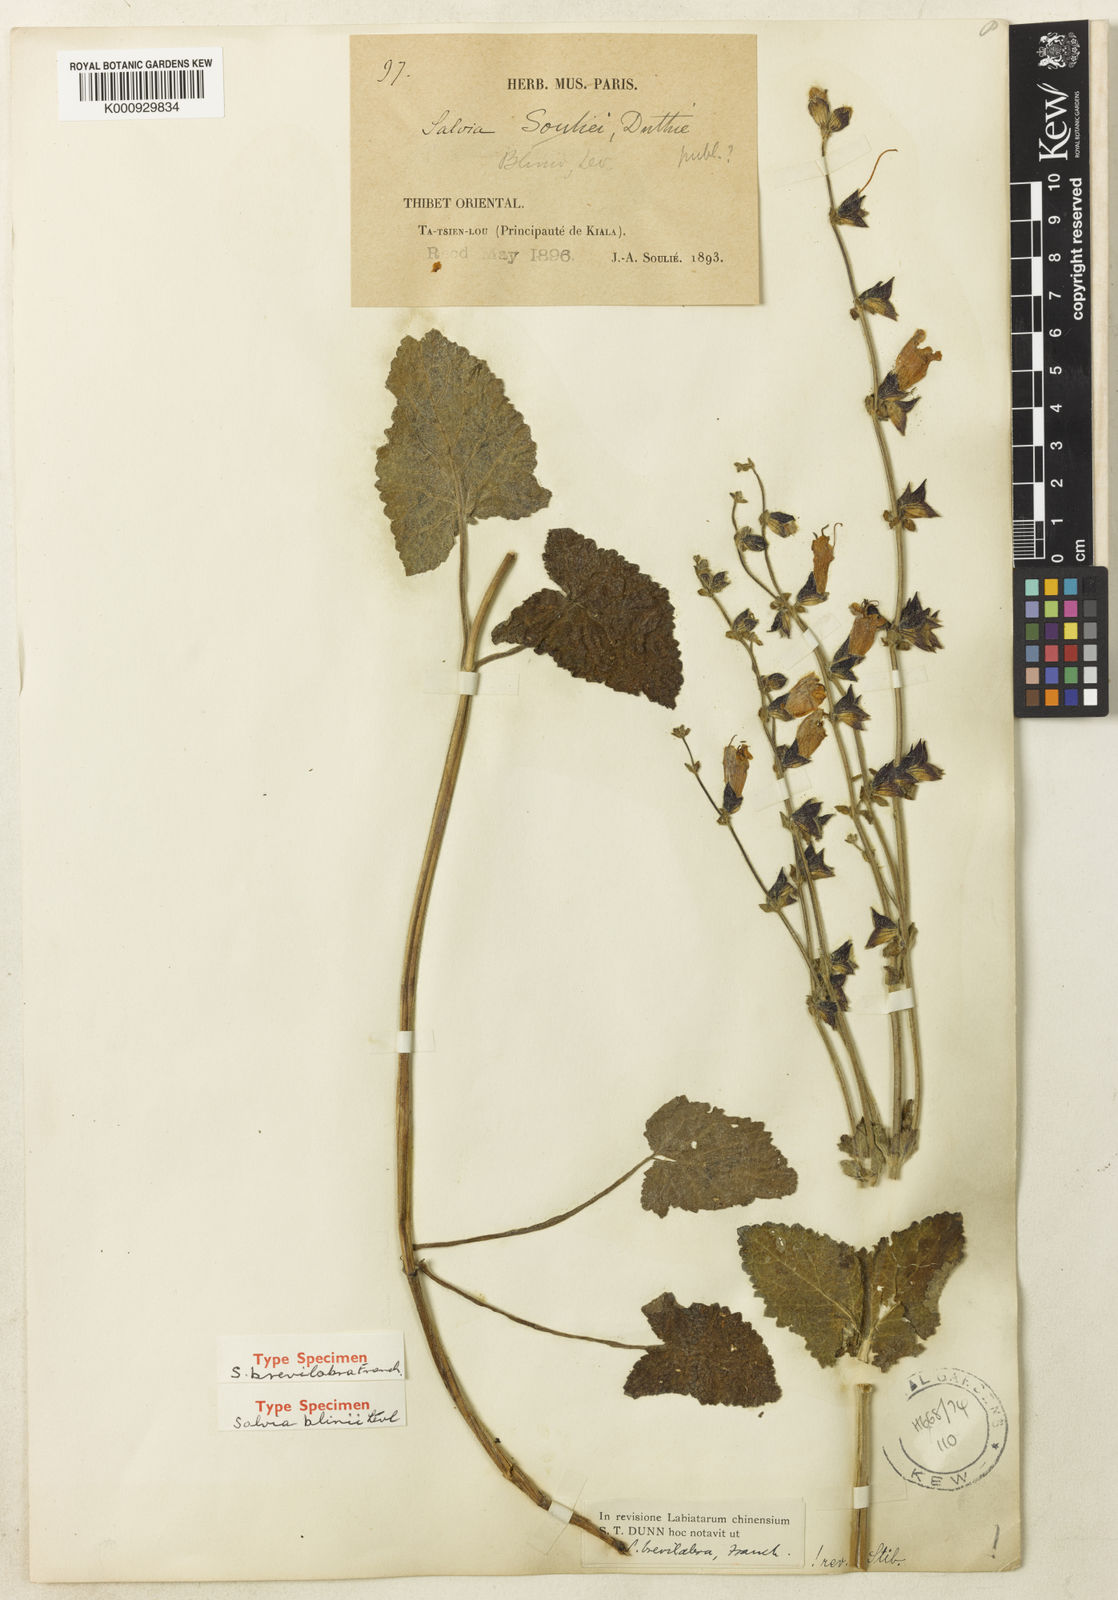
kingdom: Plantae
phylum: Tracheophyta
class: Magnoliopsida
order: Lamiales
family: Lamiaceae
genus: Salvia
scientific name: Salvia brevilabra
